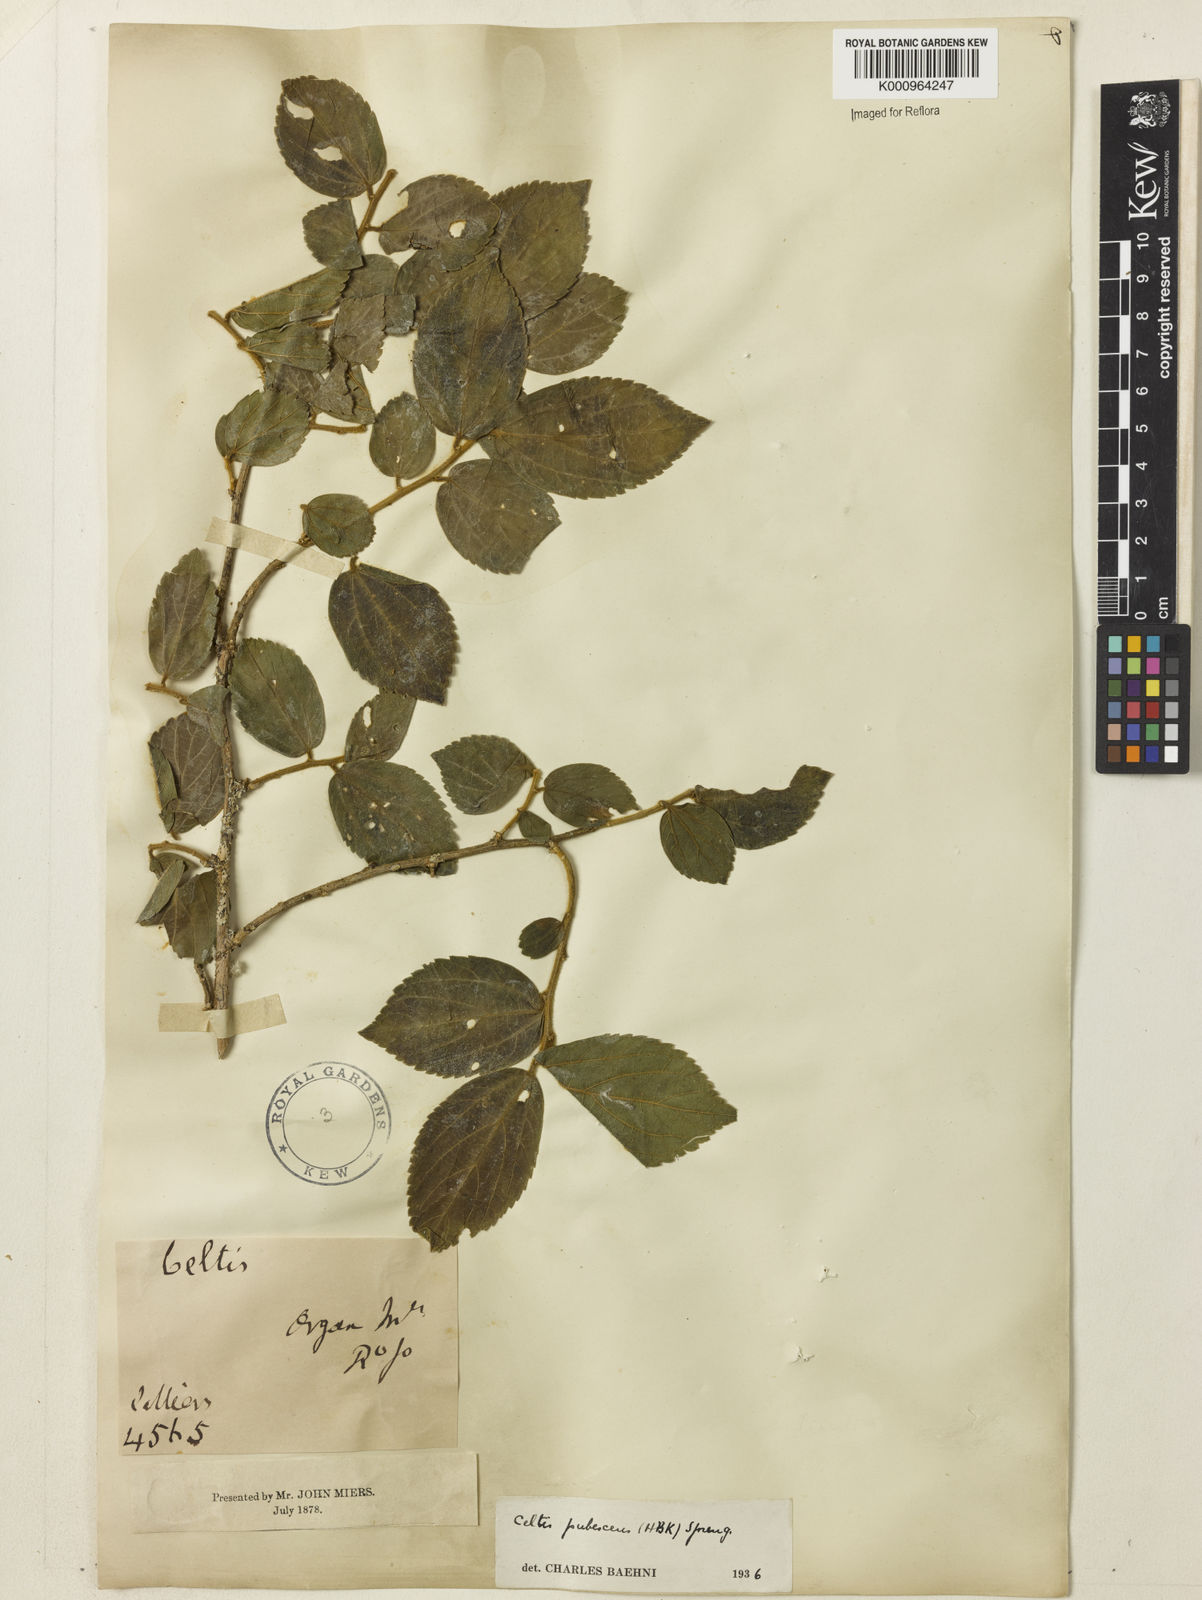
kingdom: Plantae
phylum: Tracheophyta
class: Magnoliopsida
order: Rosales
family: Cannabaceae
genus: Celtis
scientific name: Celtis iguanaea
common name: Iguana hackberry
